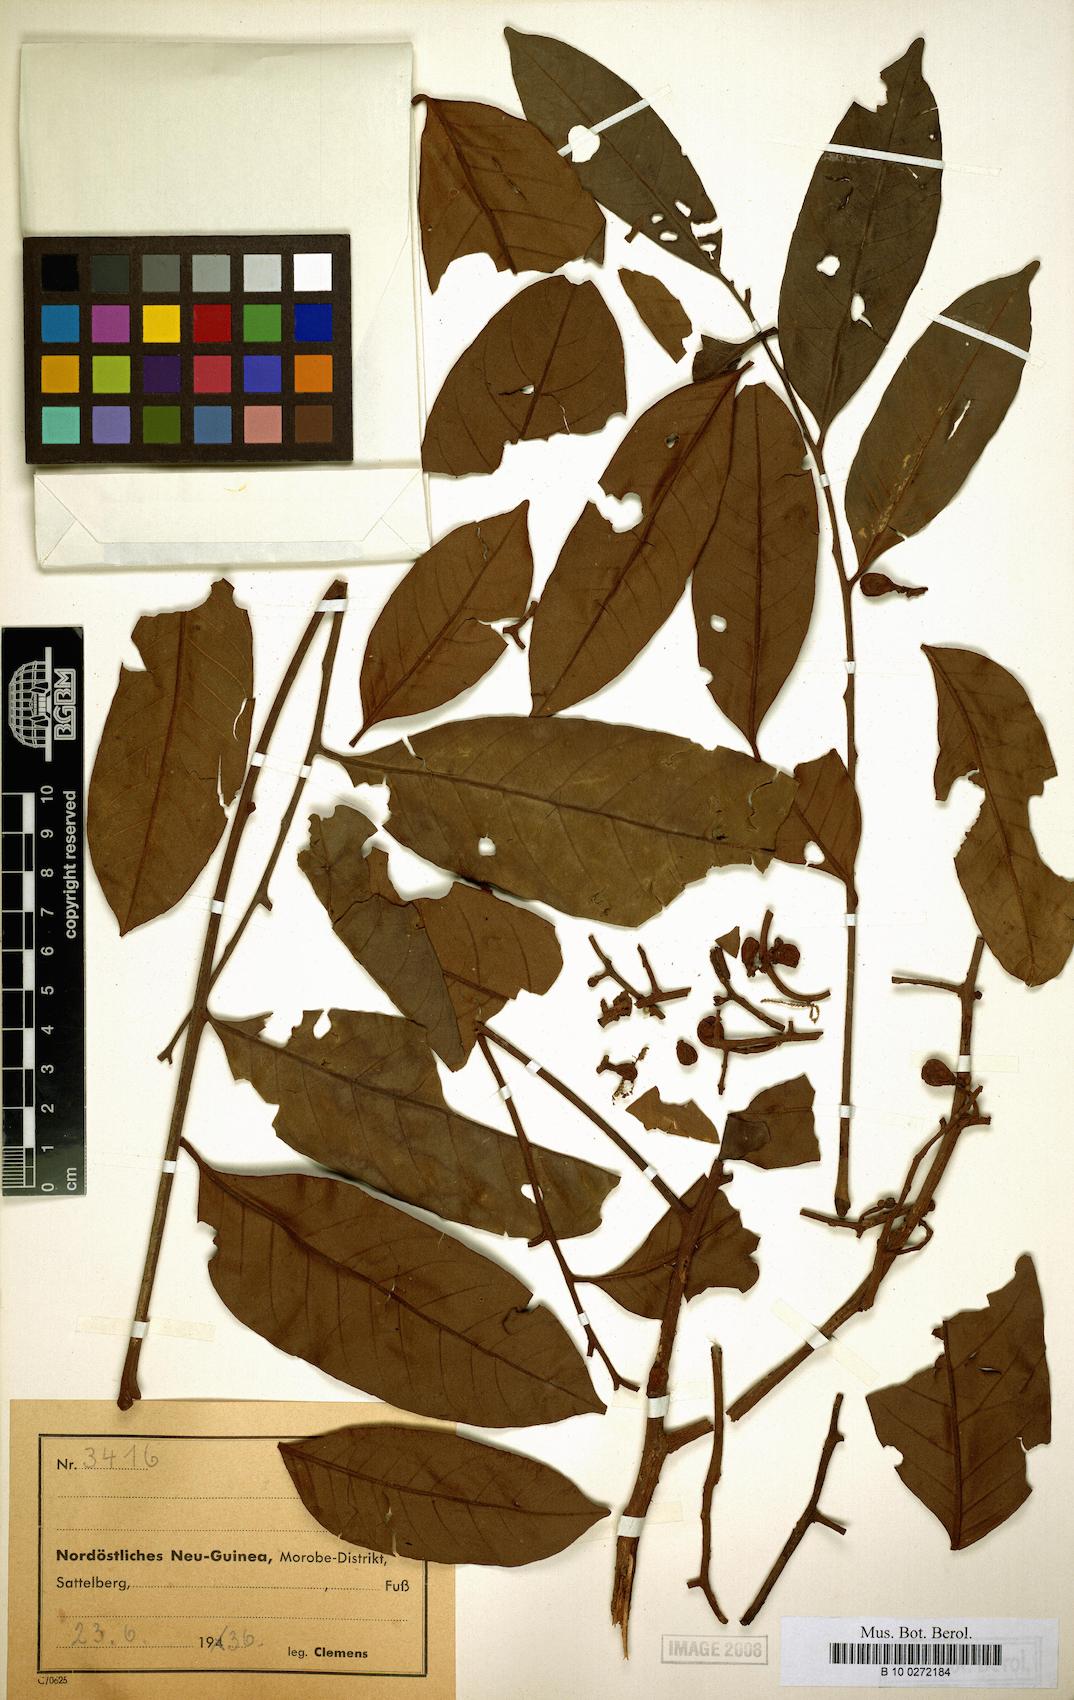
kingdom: Plantae
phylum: Tracheophyta
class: Magnoliopsida
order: Sapindales
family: Meliaceae
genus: Aglaia
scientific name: Aglaia subcuprea
